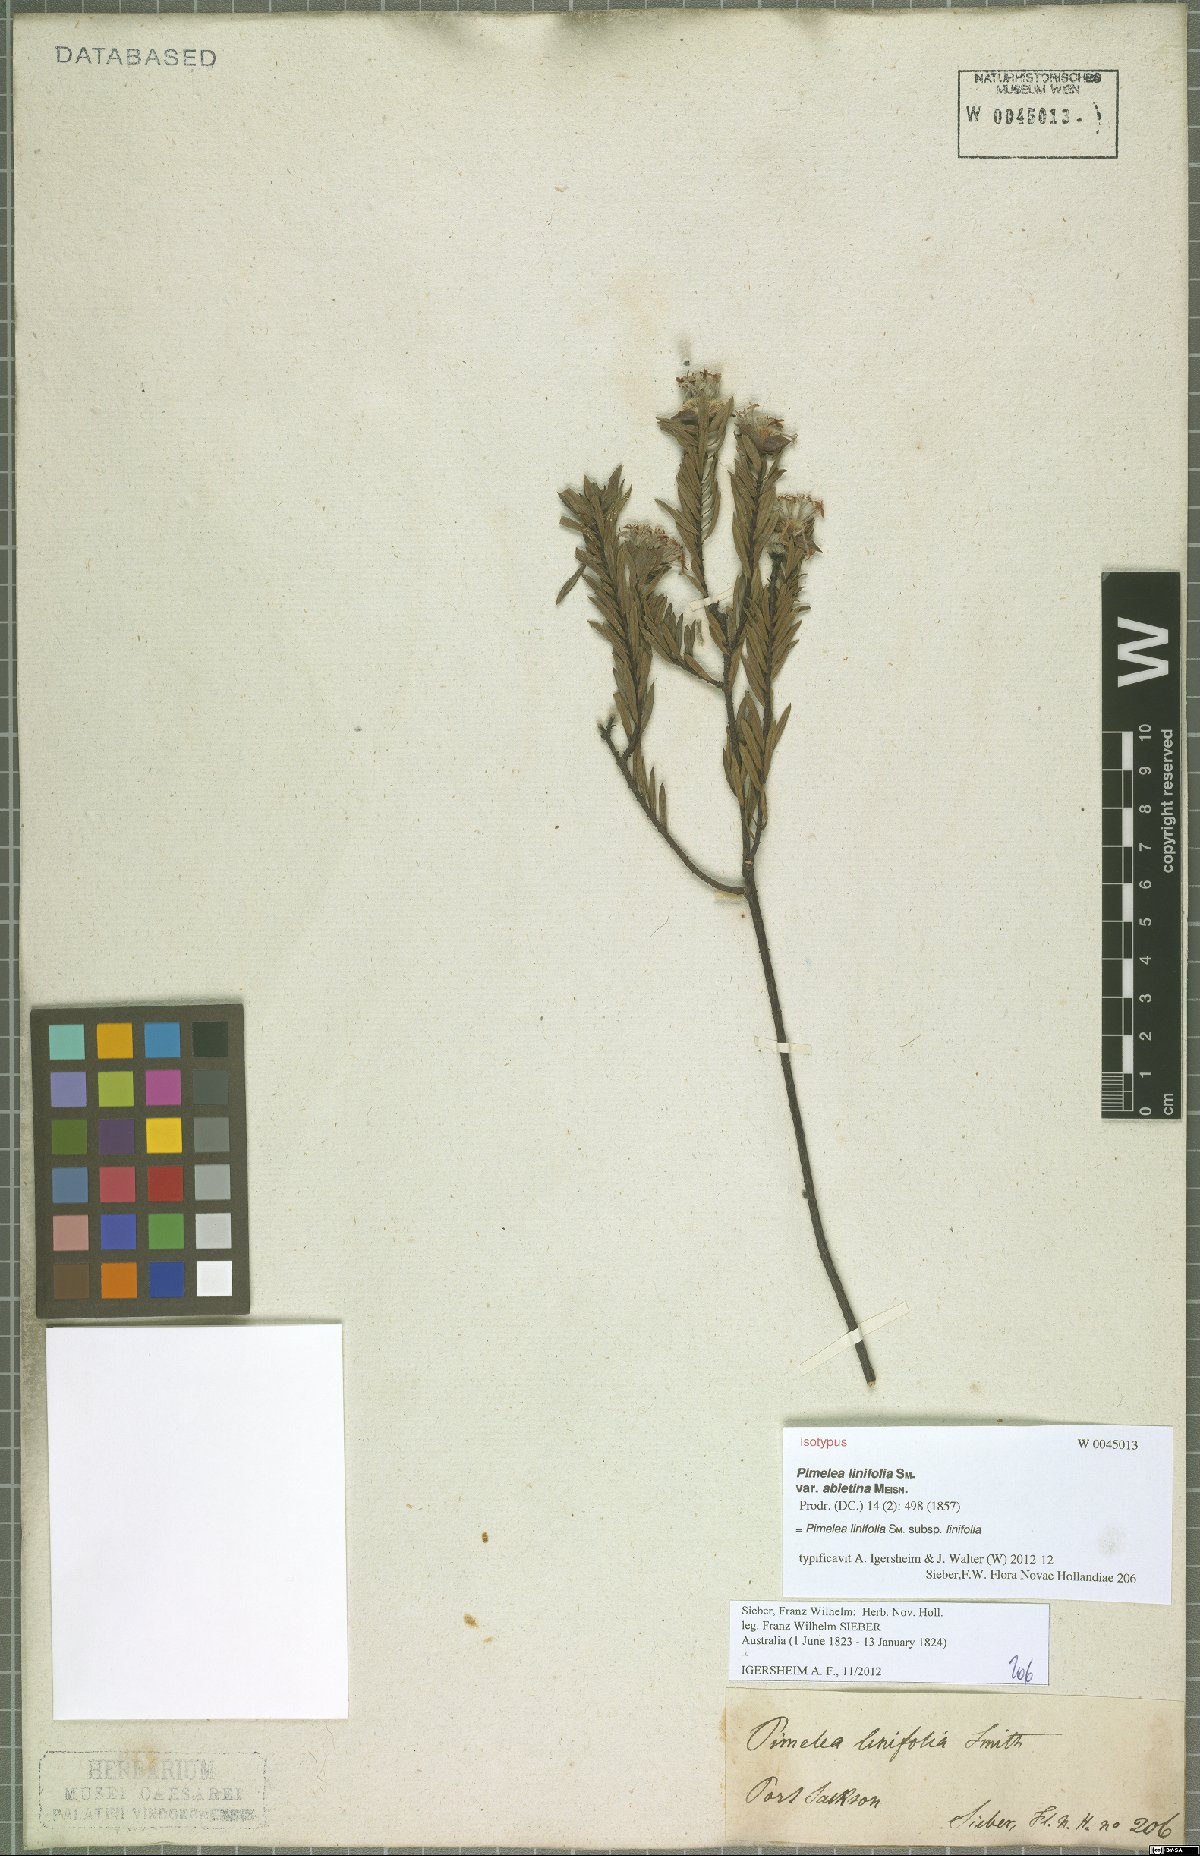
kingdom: Plantae
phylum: Tracheophyta
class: Magnoliopsida
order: Malvales
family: Thymelaeaceae
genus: Pimelea
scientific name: Pimelea linifolia
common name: Queen-of-the-bush
